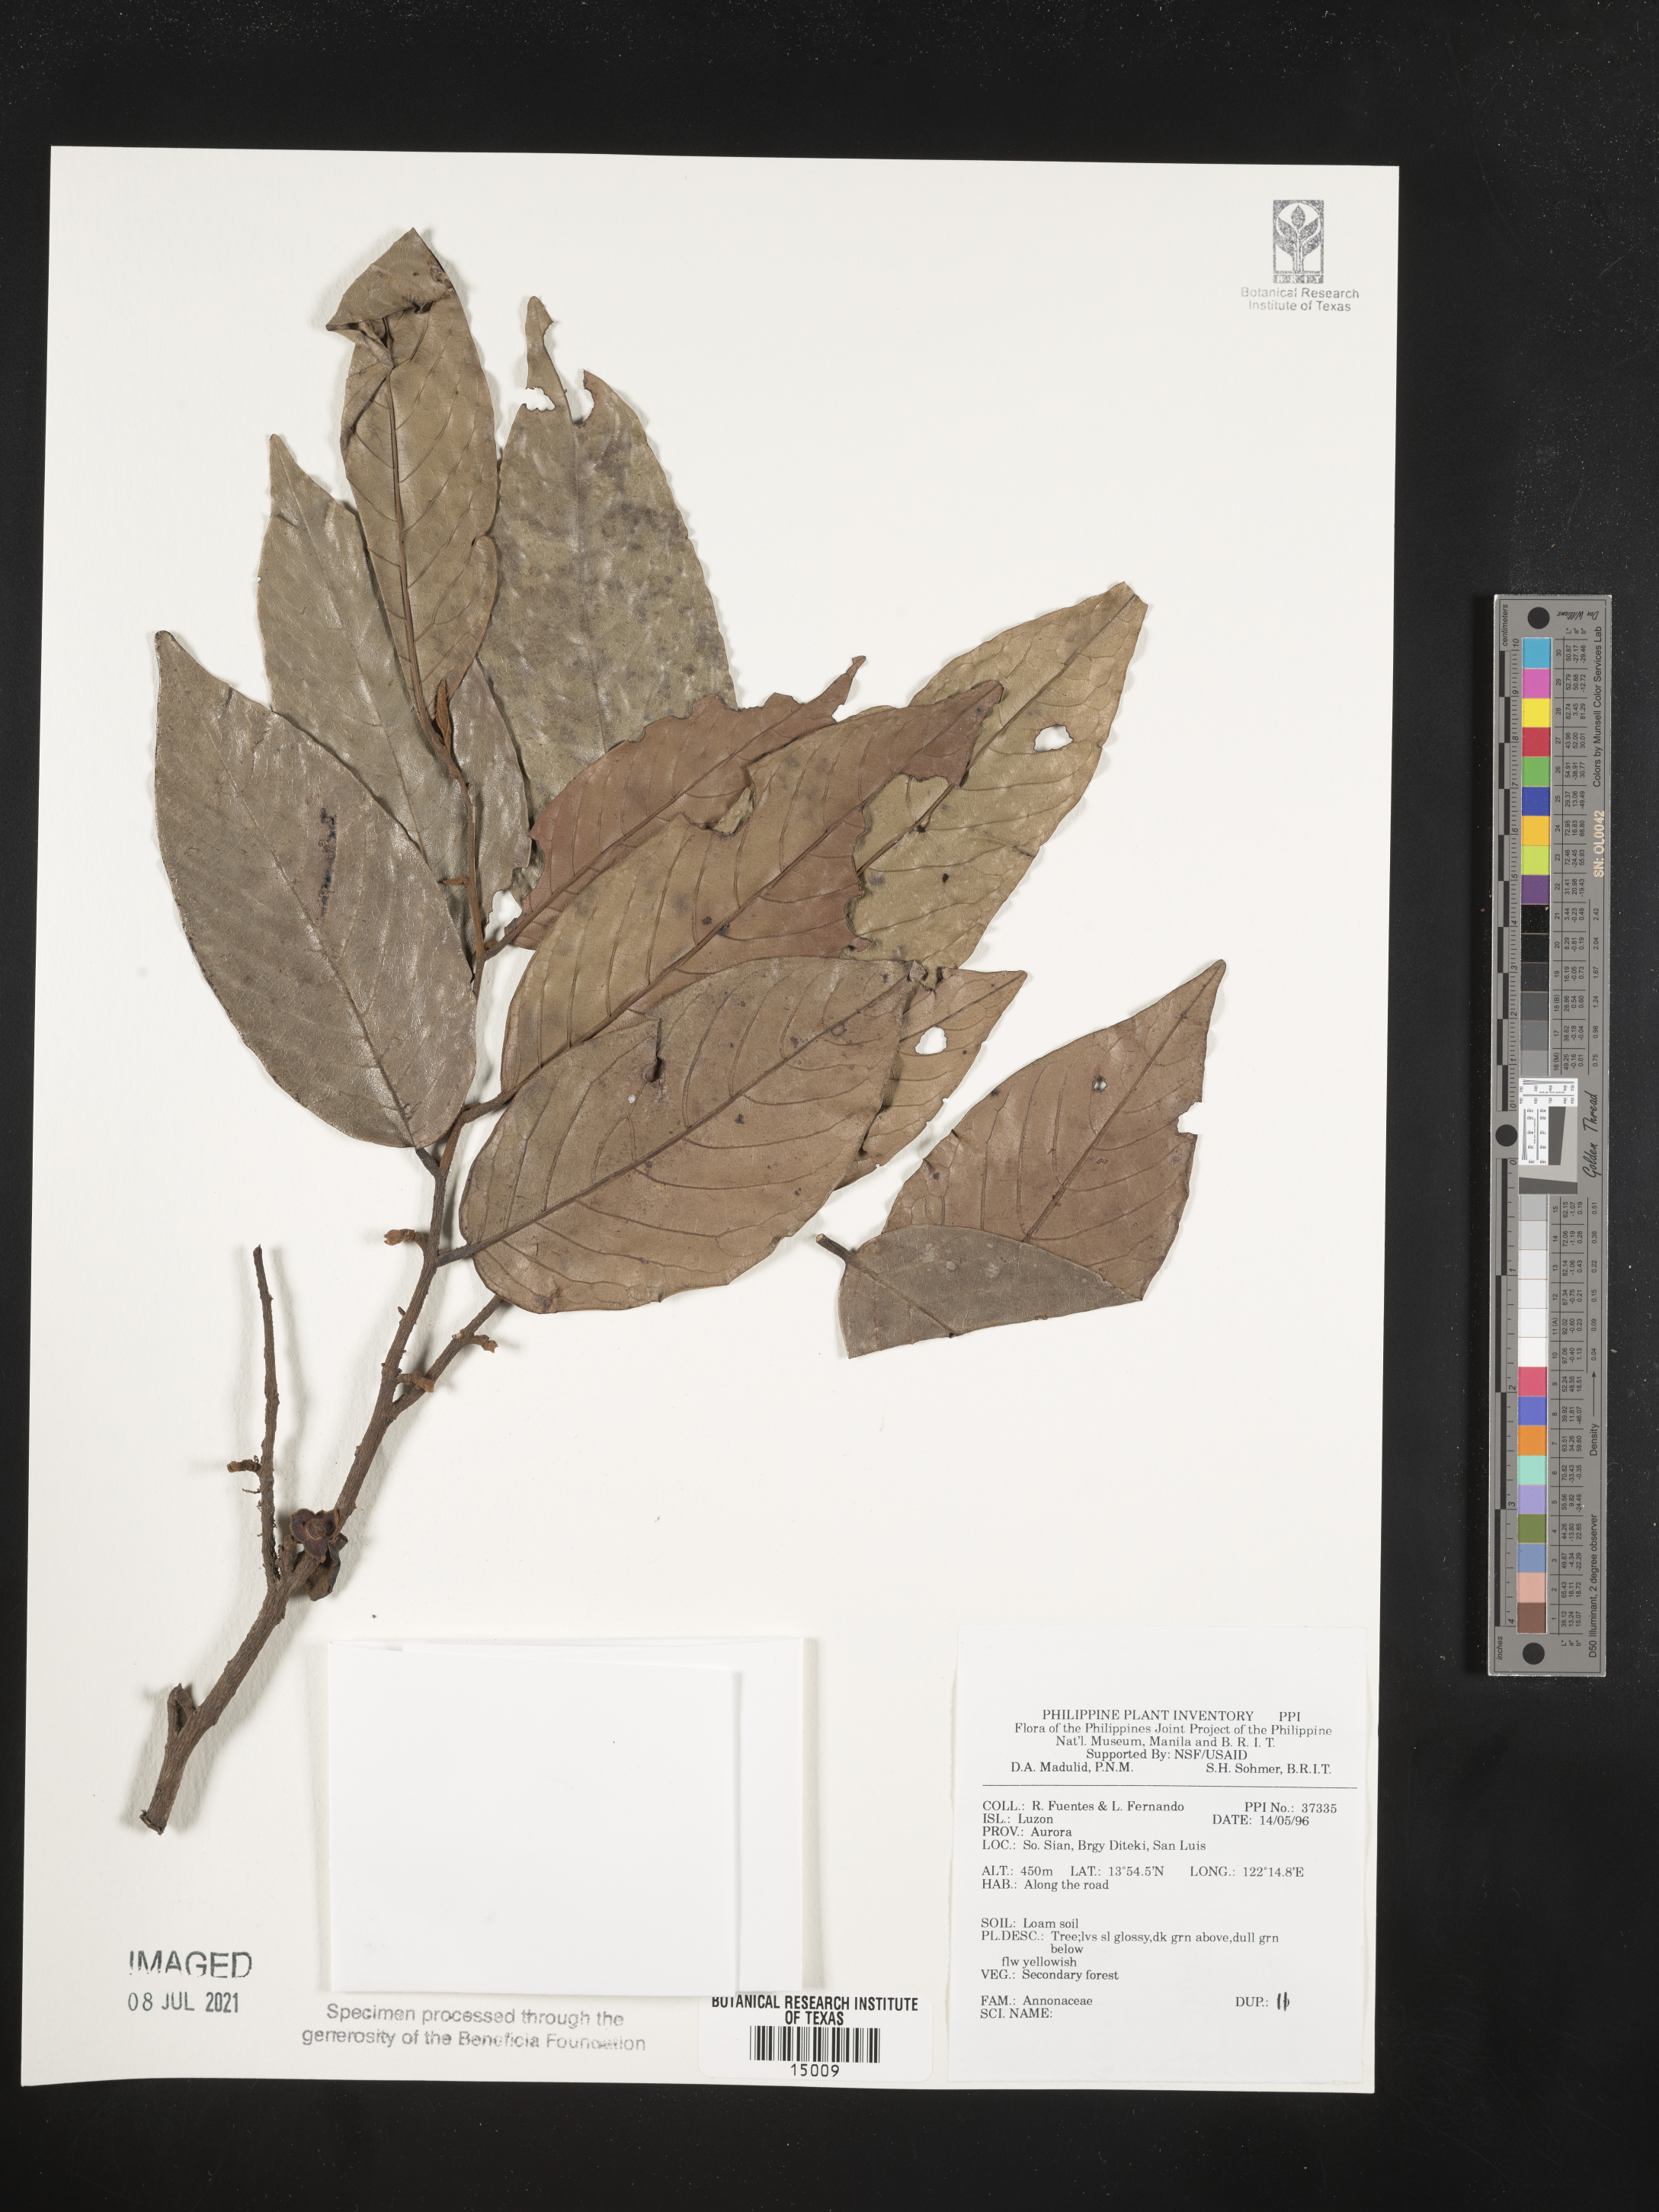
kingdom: Plantae
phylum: Tracheophyta
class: Magnoliopsida
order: Magnoliales
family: Annonaceae
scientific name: Annonaceae
